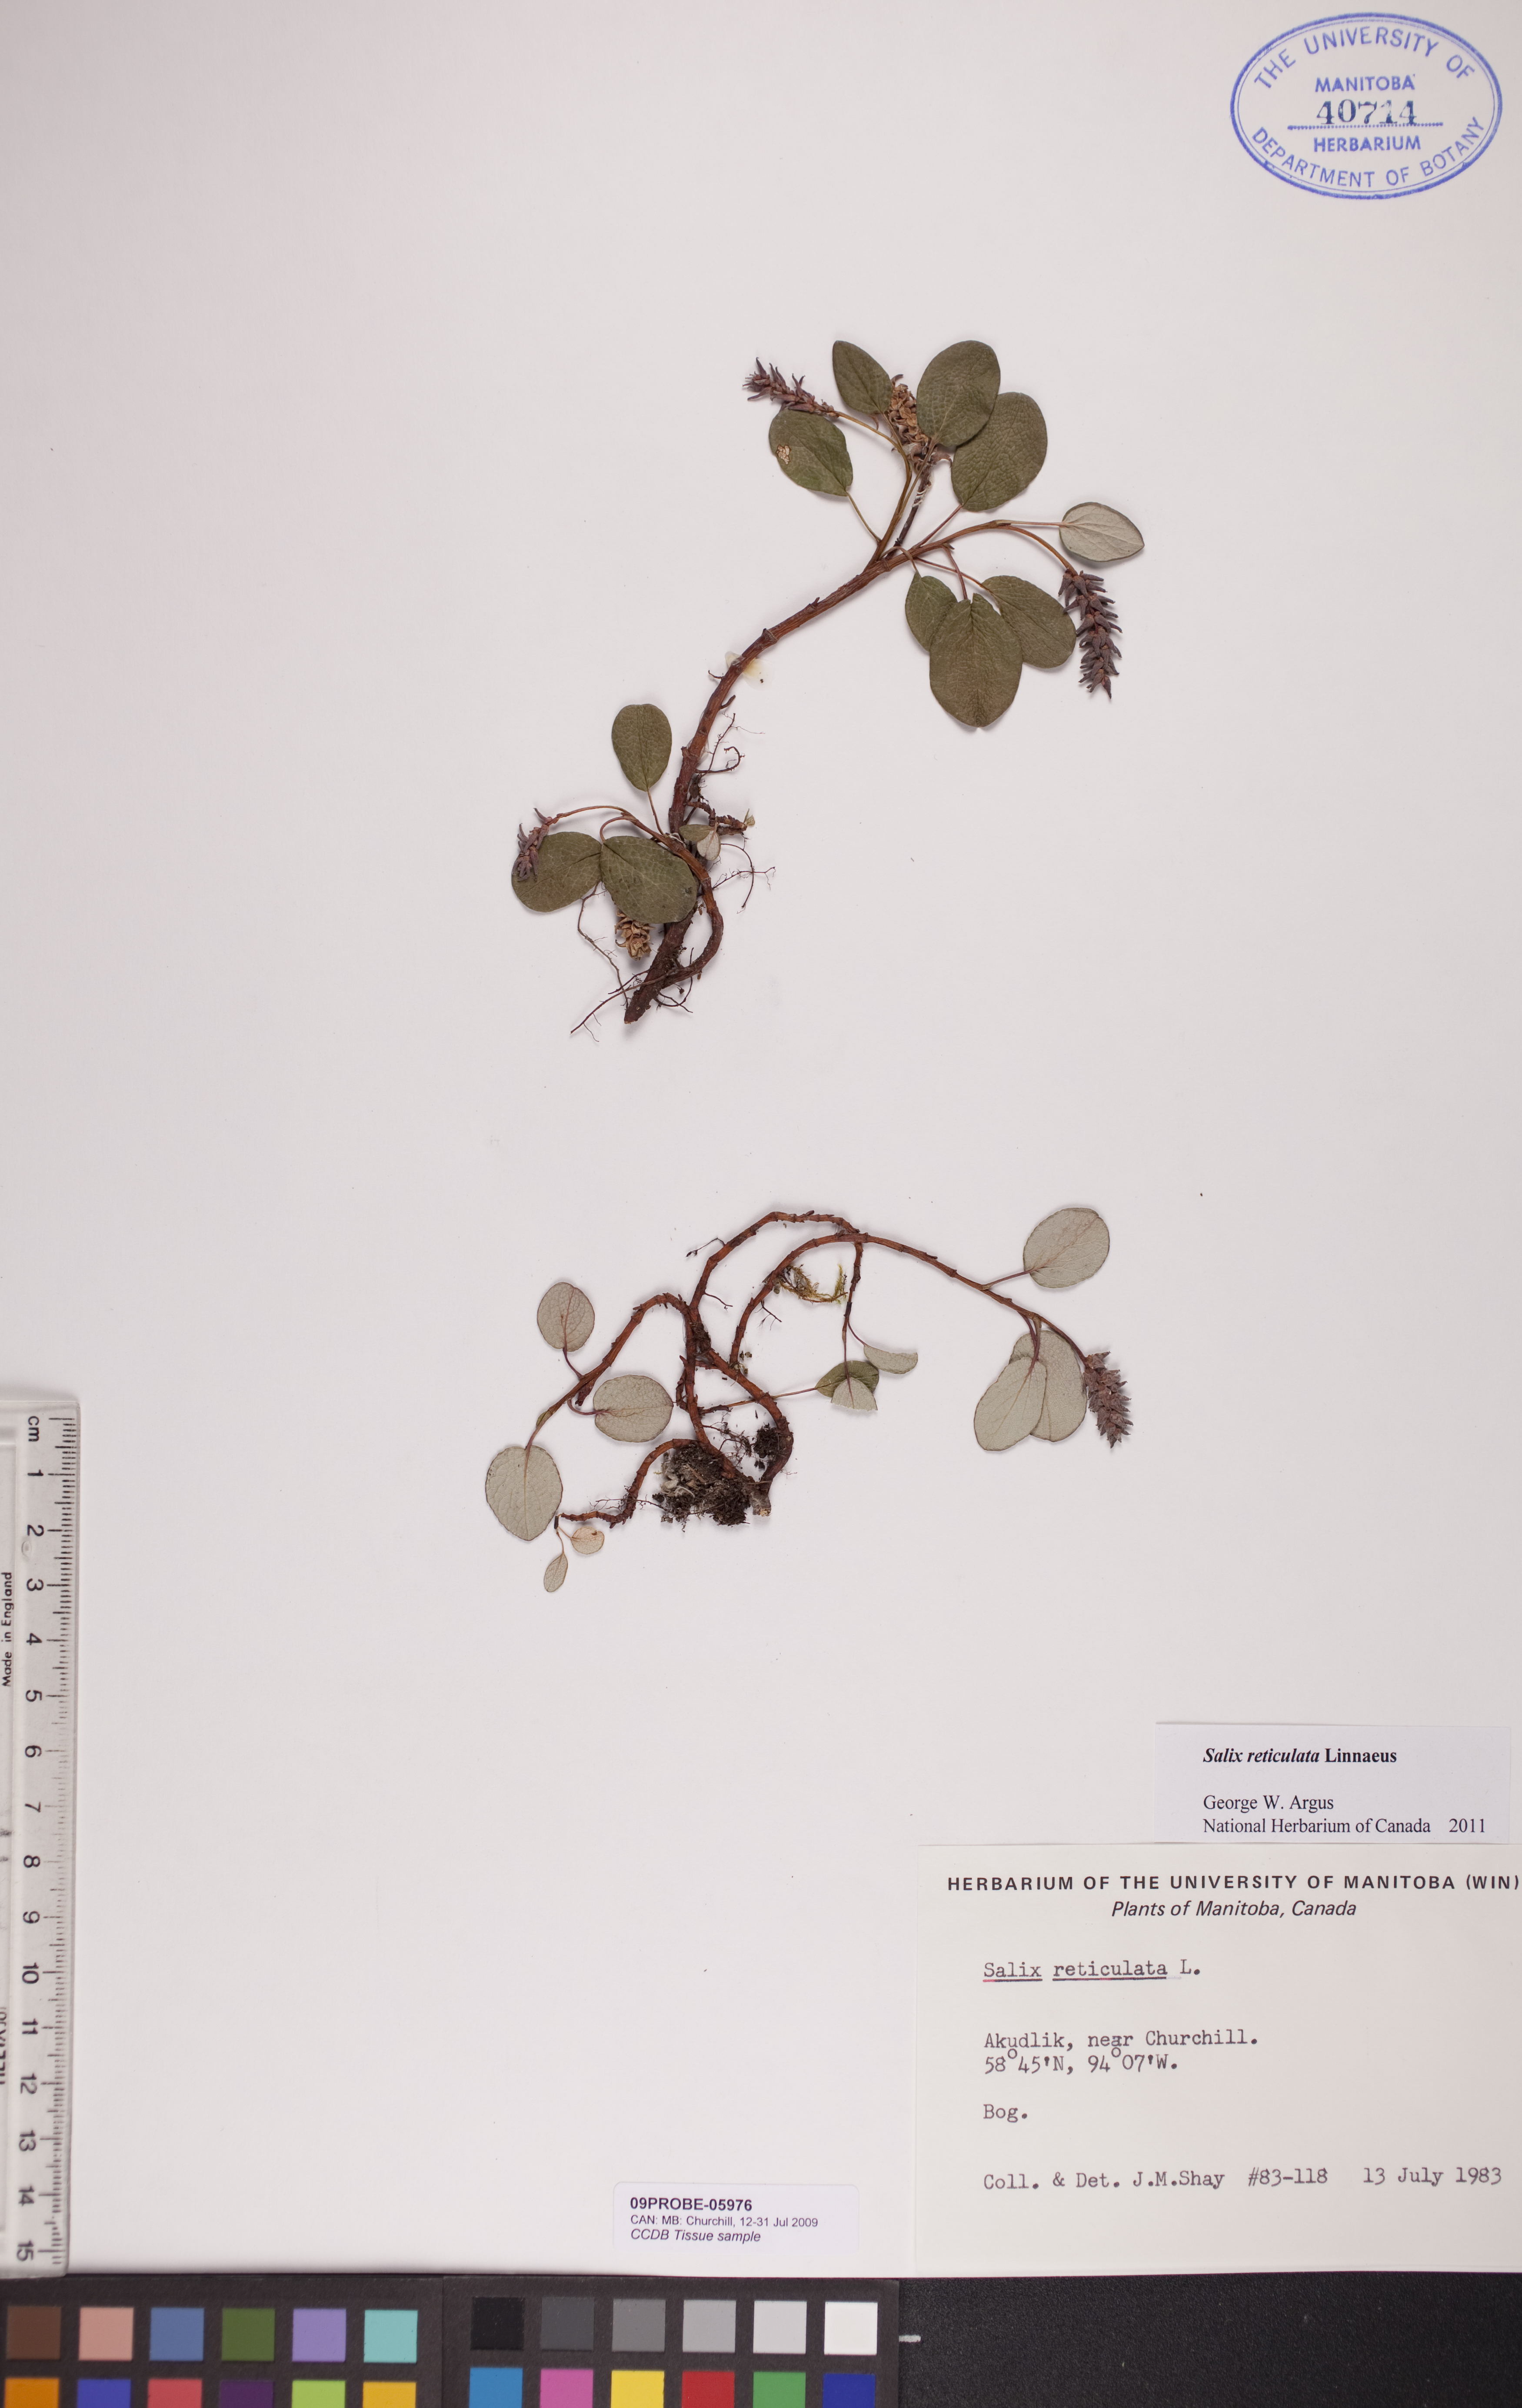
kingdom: Plantae
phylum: Tracheophyta
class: Magnoliopsida
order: Malpighiales
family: Salicaceae
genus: Salix
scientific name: Salix reticulata
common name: Net-leaved willow
